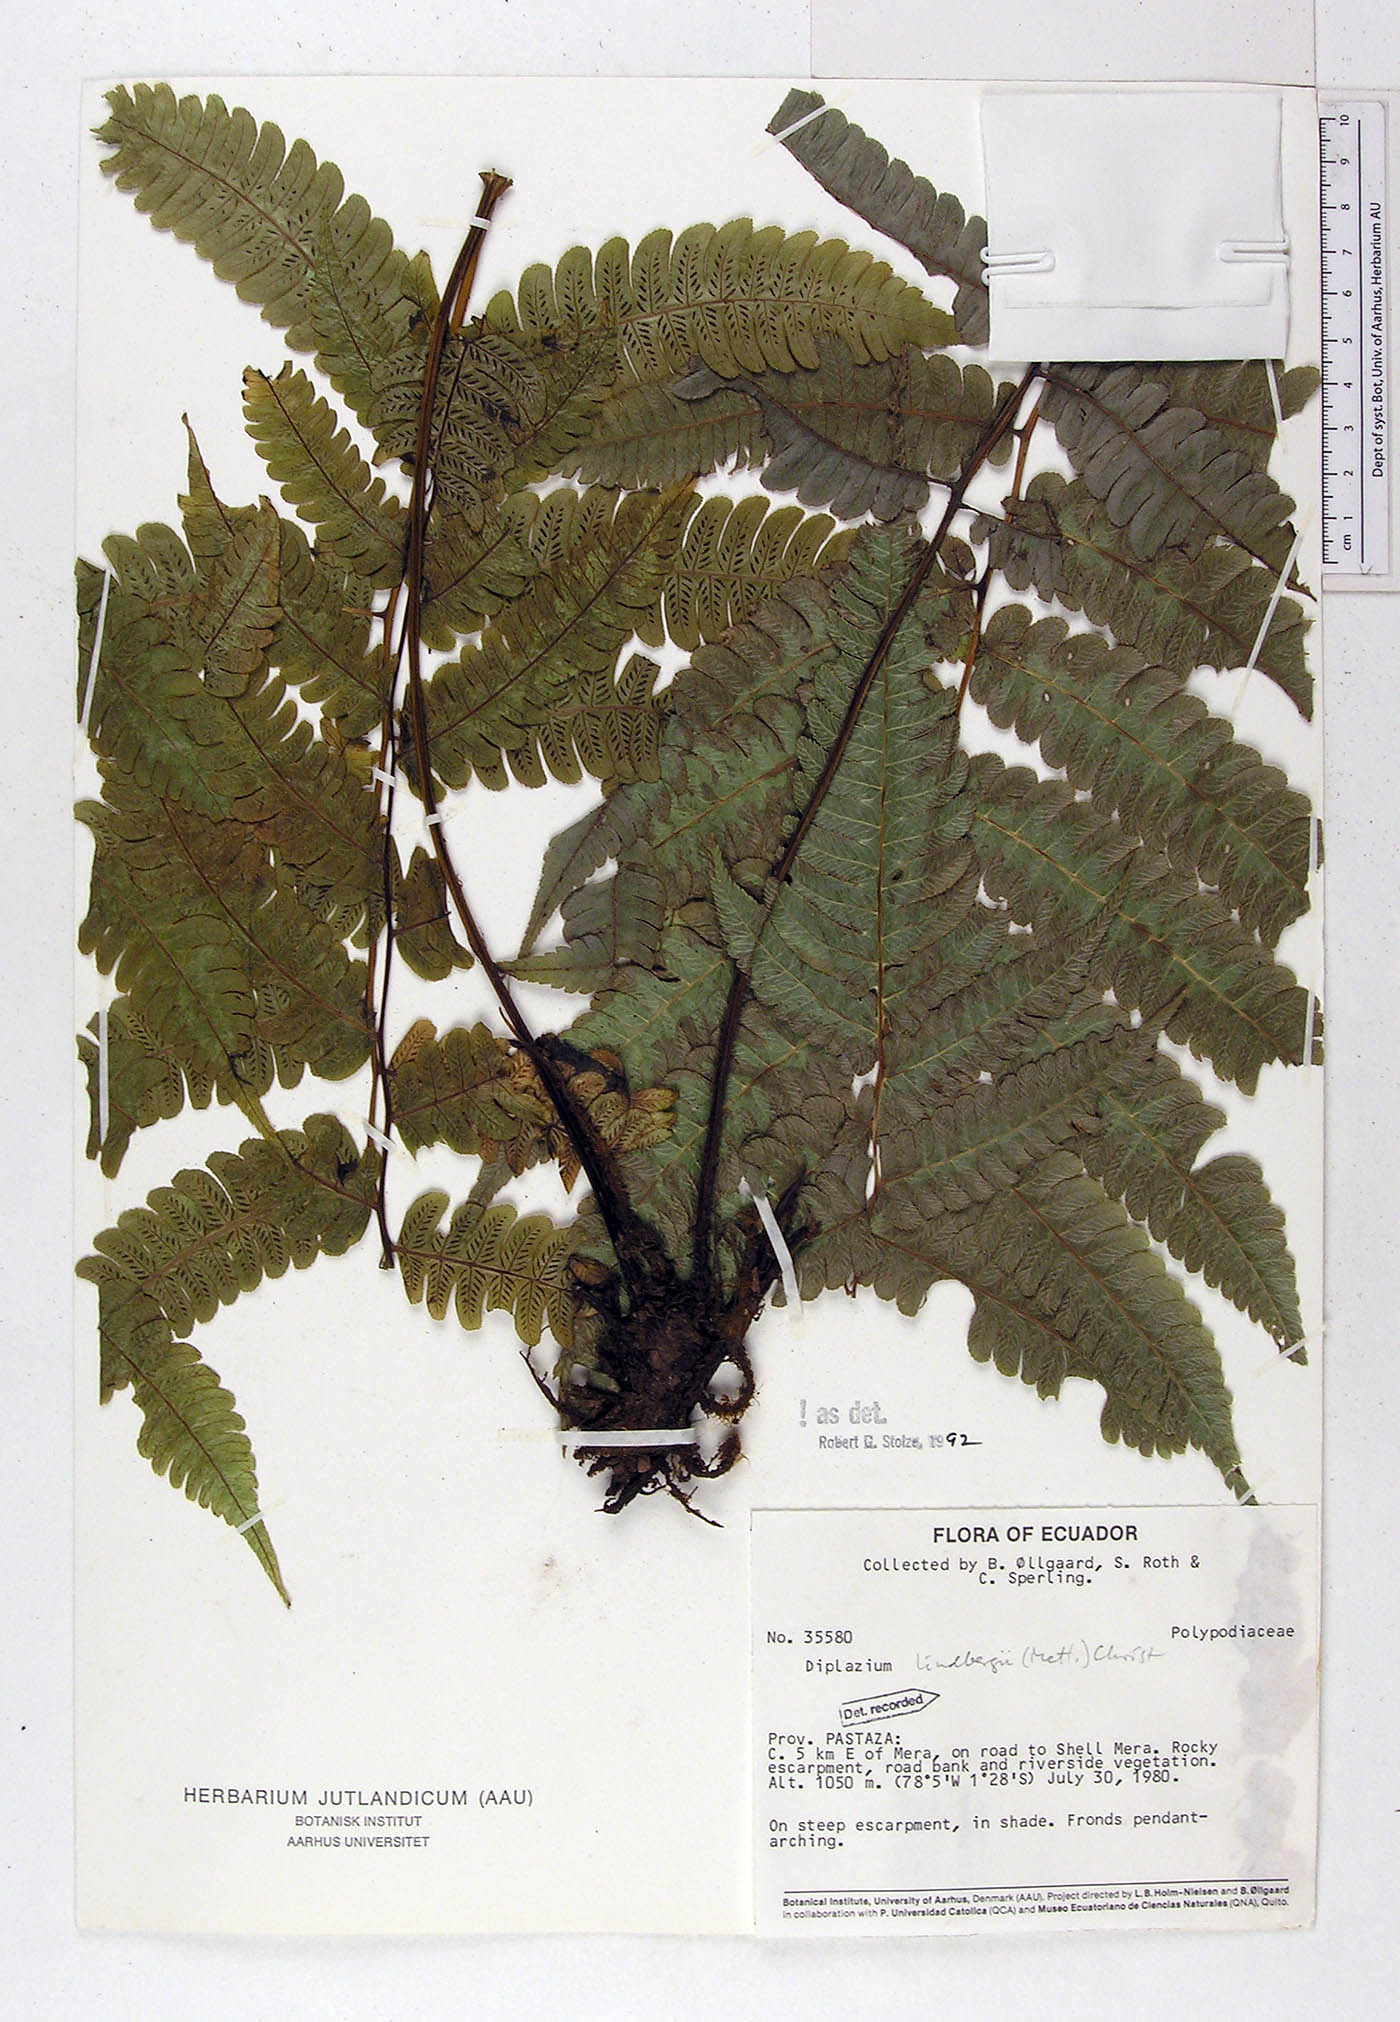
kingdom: Plantae
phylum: Tracheophyta
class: Polypodiopsida
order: Polypodiales
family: Athyriaceae
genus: Diplazium
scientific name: Diplazium lindbergii
